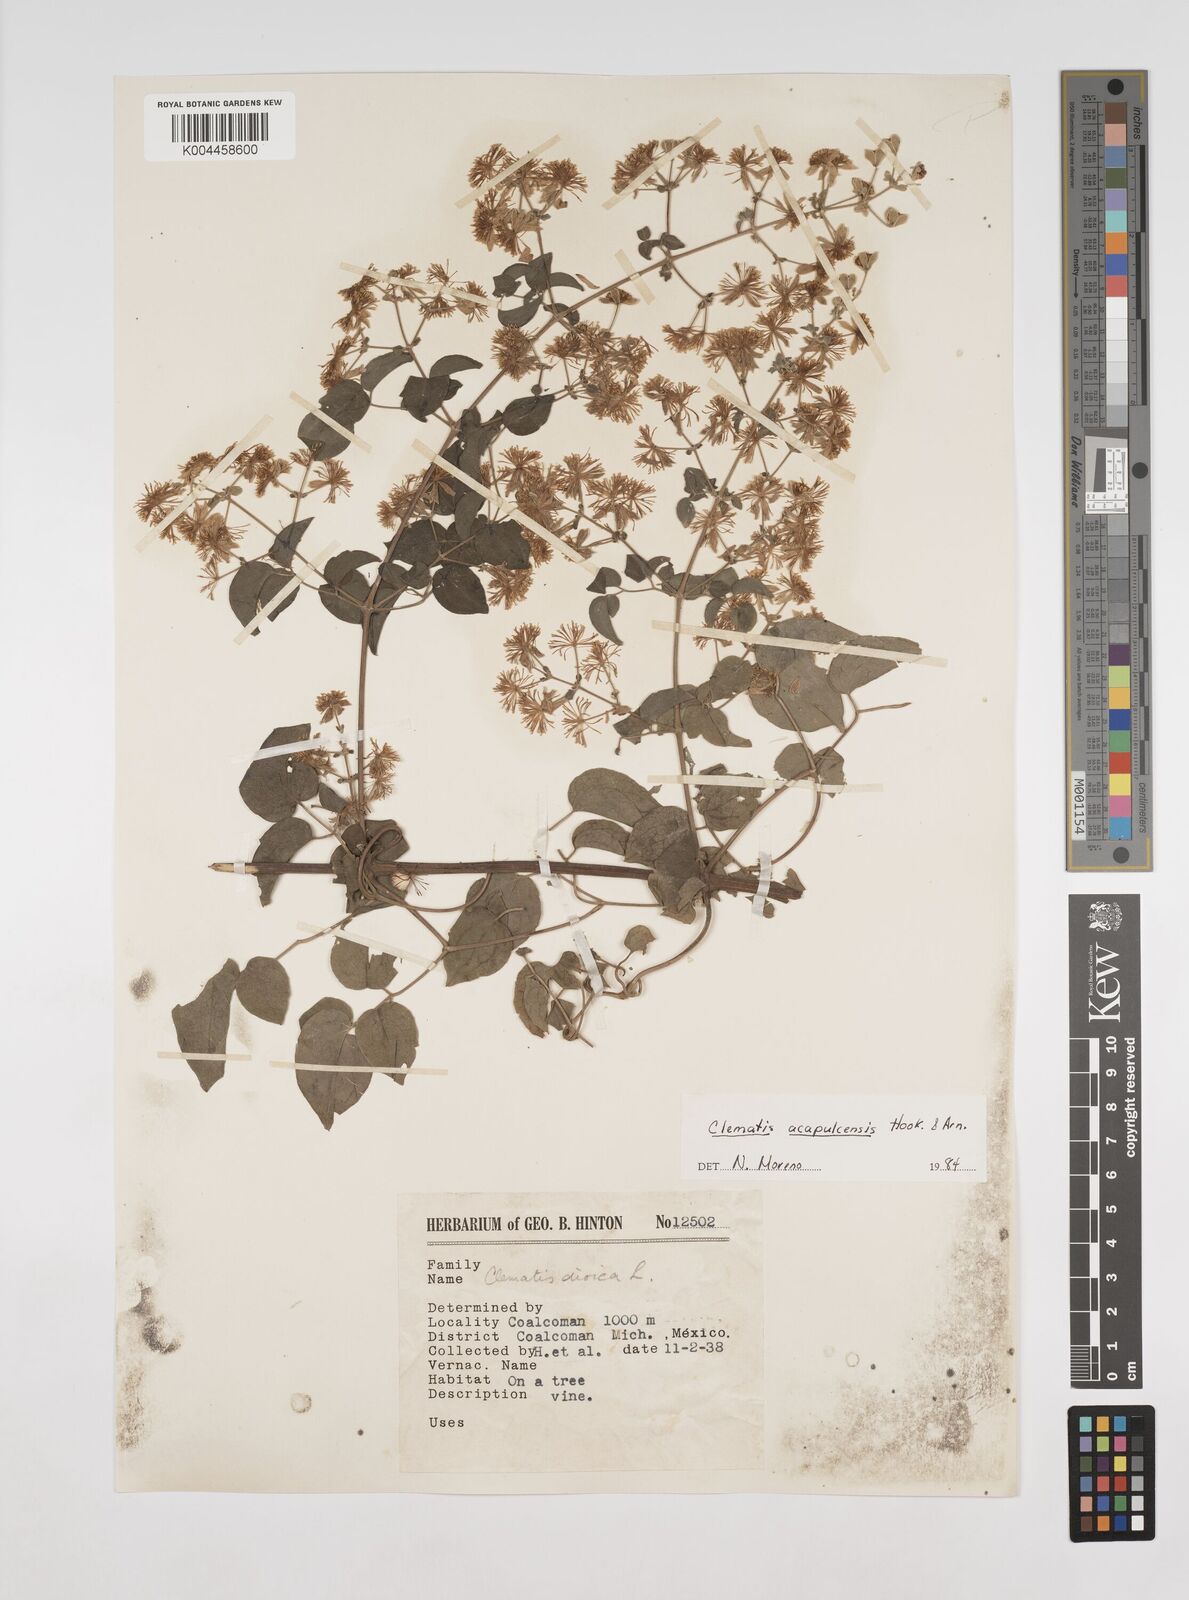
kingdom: Plantae
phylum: Tracheophyta
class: Magnoliopsida
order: Ranunculales
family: Ranunculaceae
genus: Clematis
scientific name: Clematis acapulcensis
